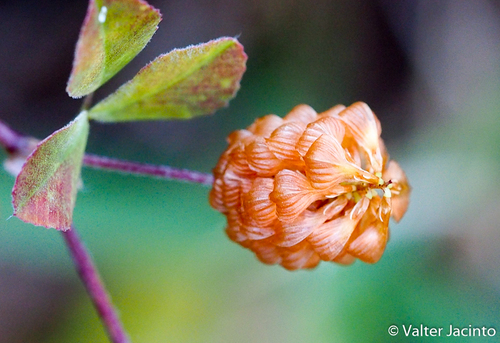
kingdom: Plantae
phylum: Tracheophyta
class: Magnoliopsida
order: Fabales
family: Fabaceae
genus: Trifolium
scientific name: Trifolium campestre
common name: Field clover
